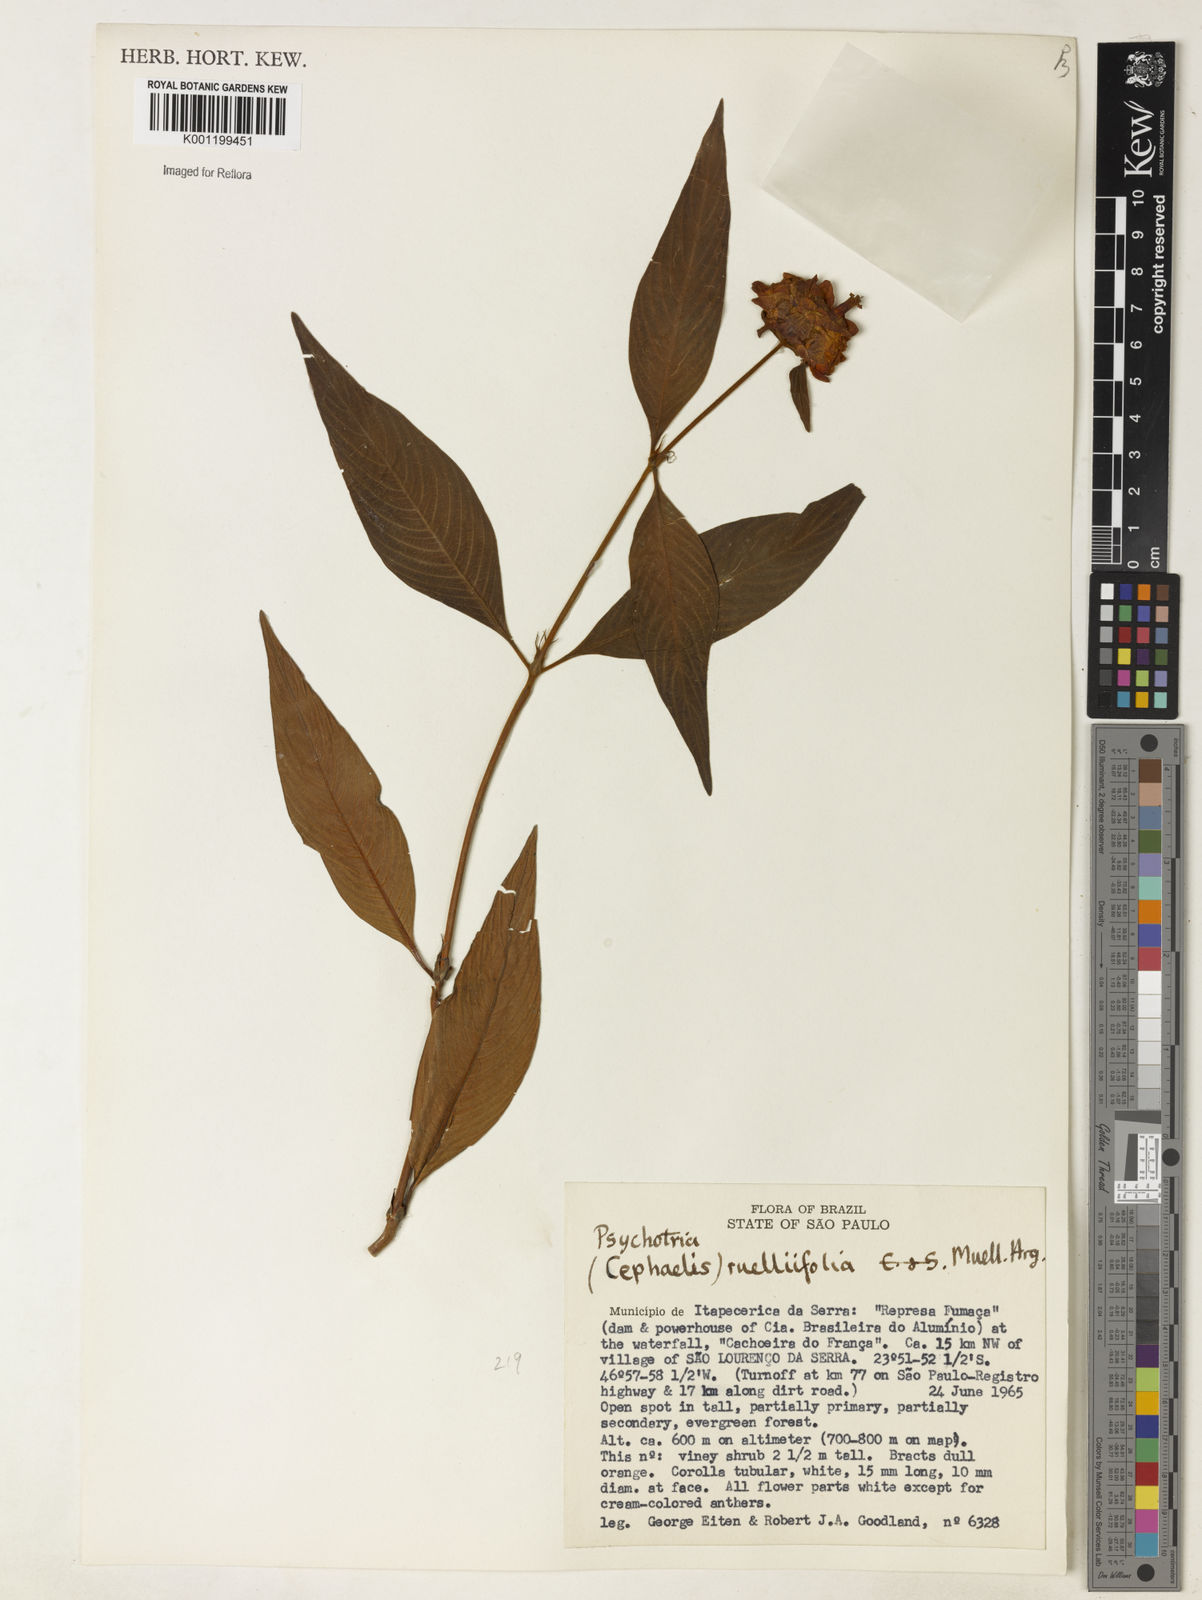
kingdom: Plantae
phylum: Tracheophyta
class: Magnoliopsida
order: Gentianales
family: Rubiaceae
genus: Psychotria
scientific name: Psychotria
